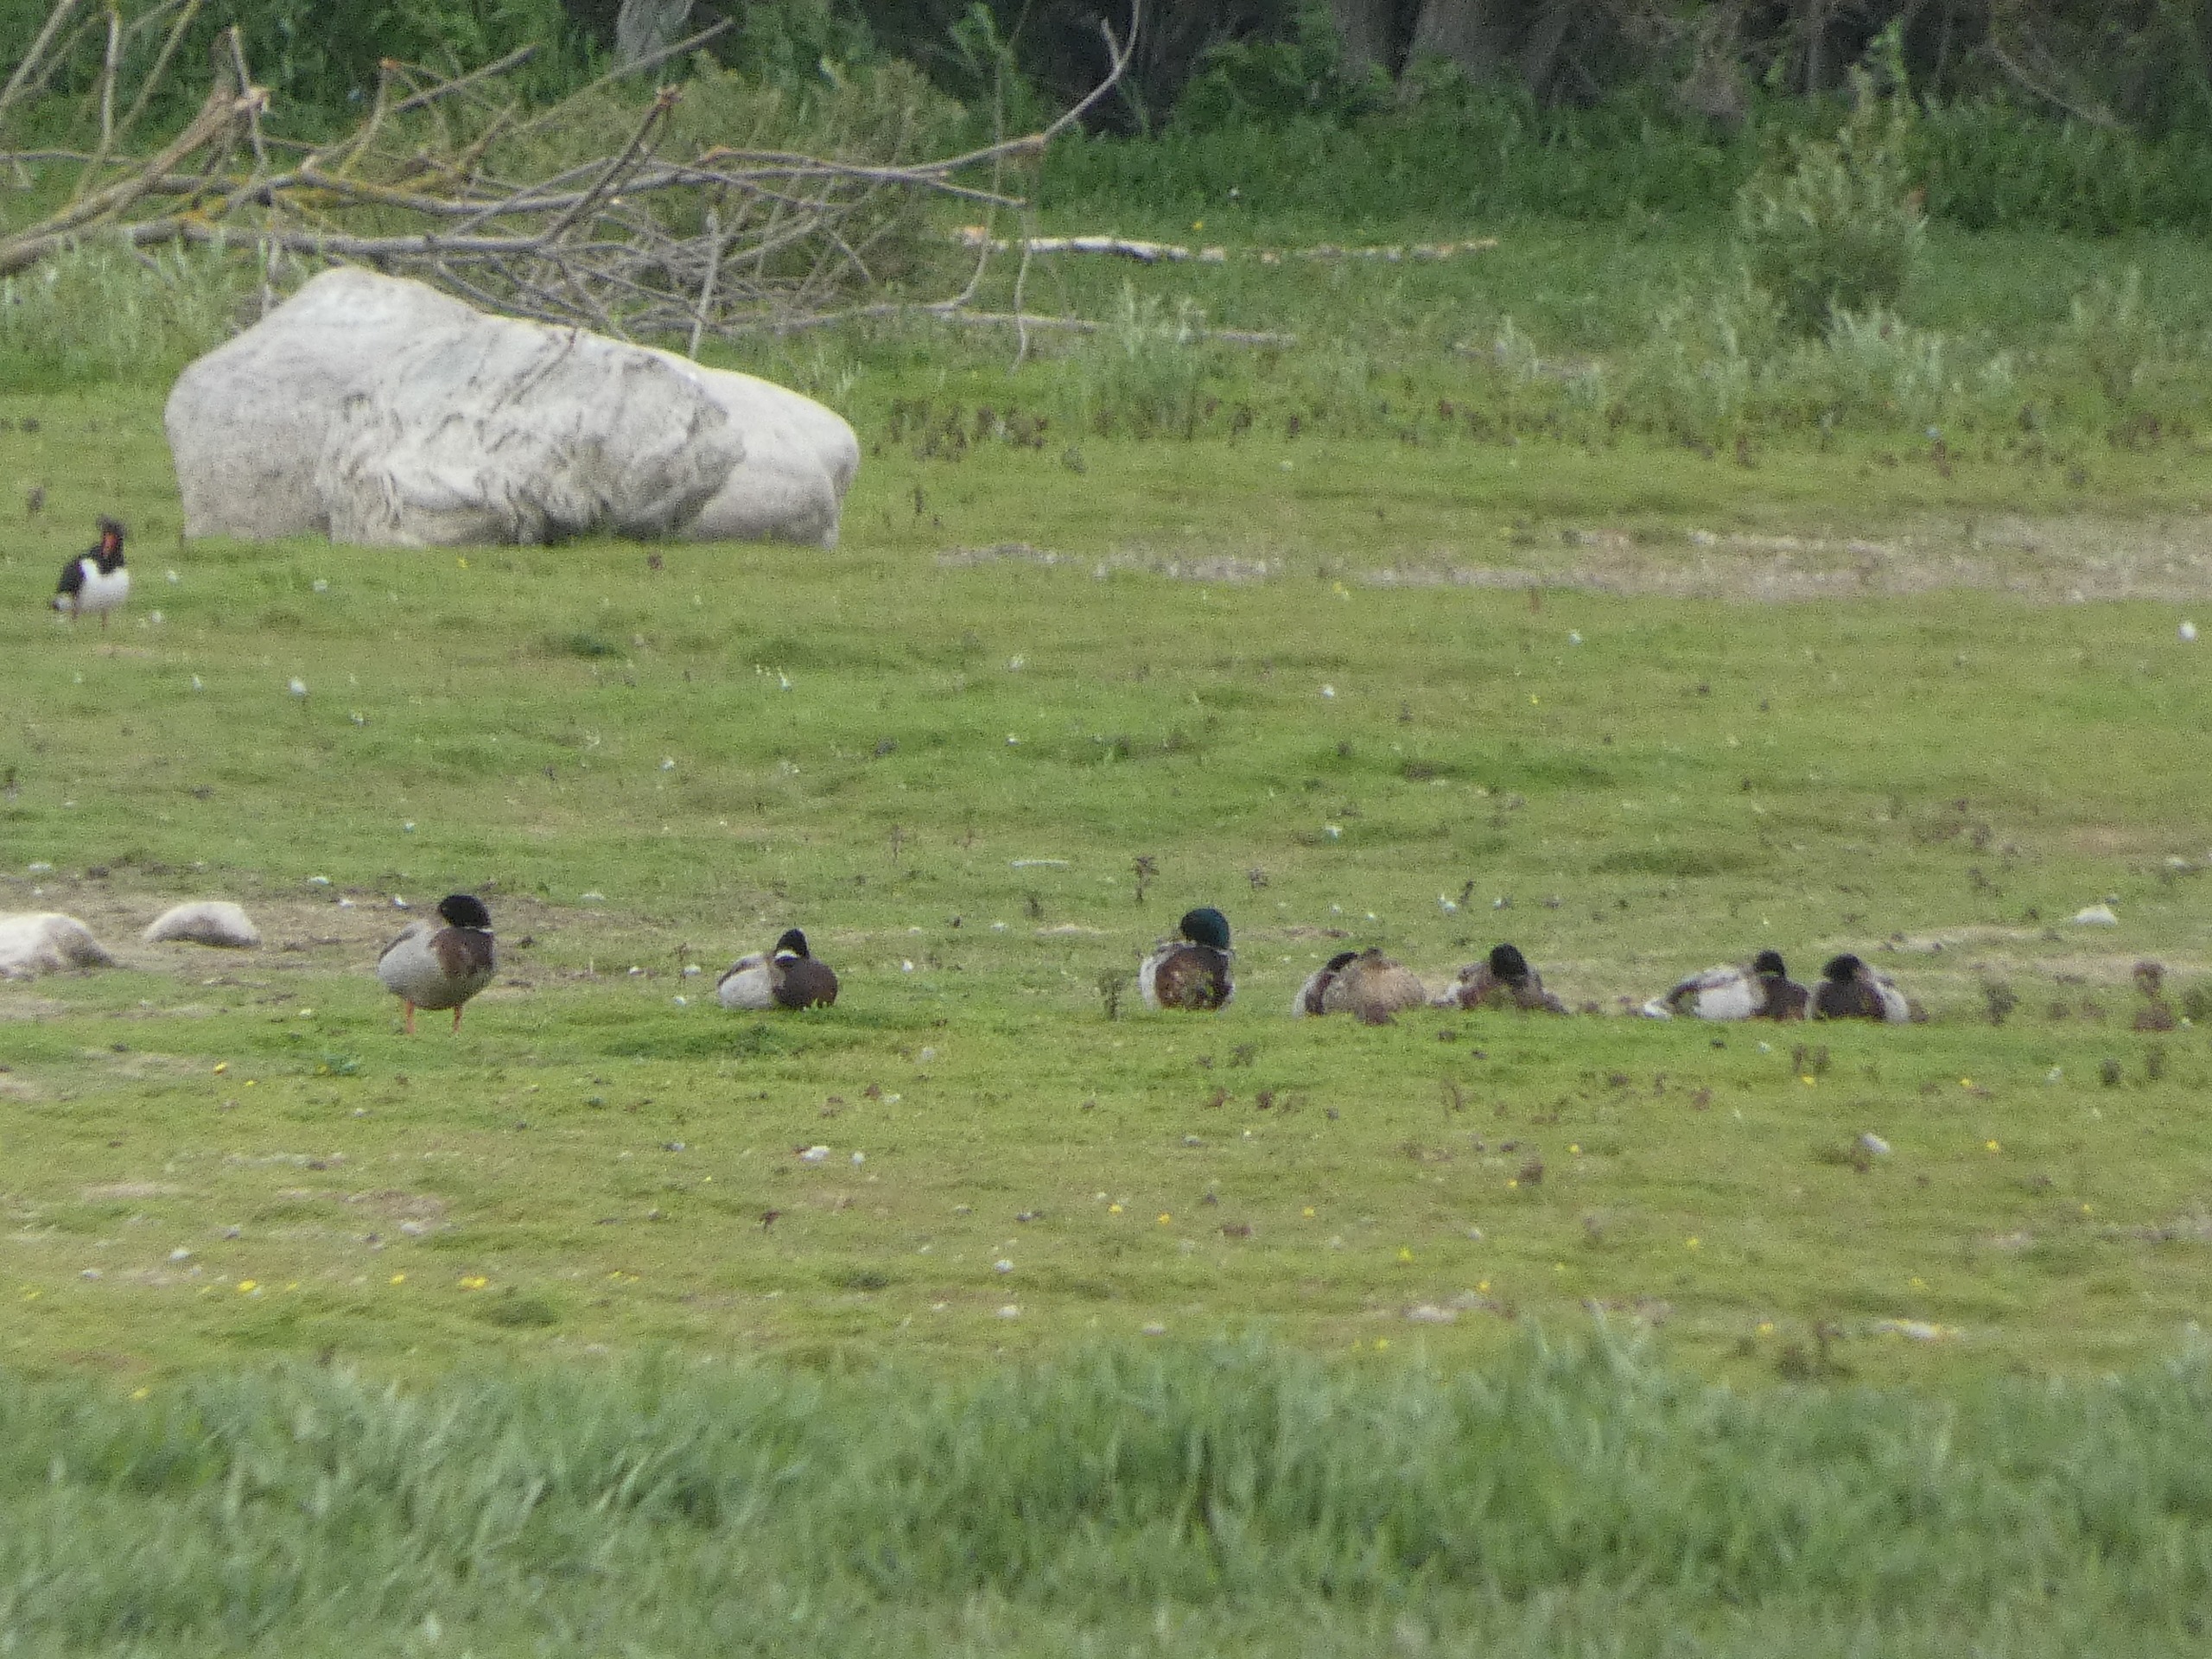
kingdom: Animalia
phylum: Chordata
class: Aves
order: Charadriiformes
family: Haematopodidae
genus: Haematopus
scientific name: Haematopus ostralegus
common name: Strandskade
